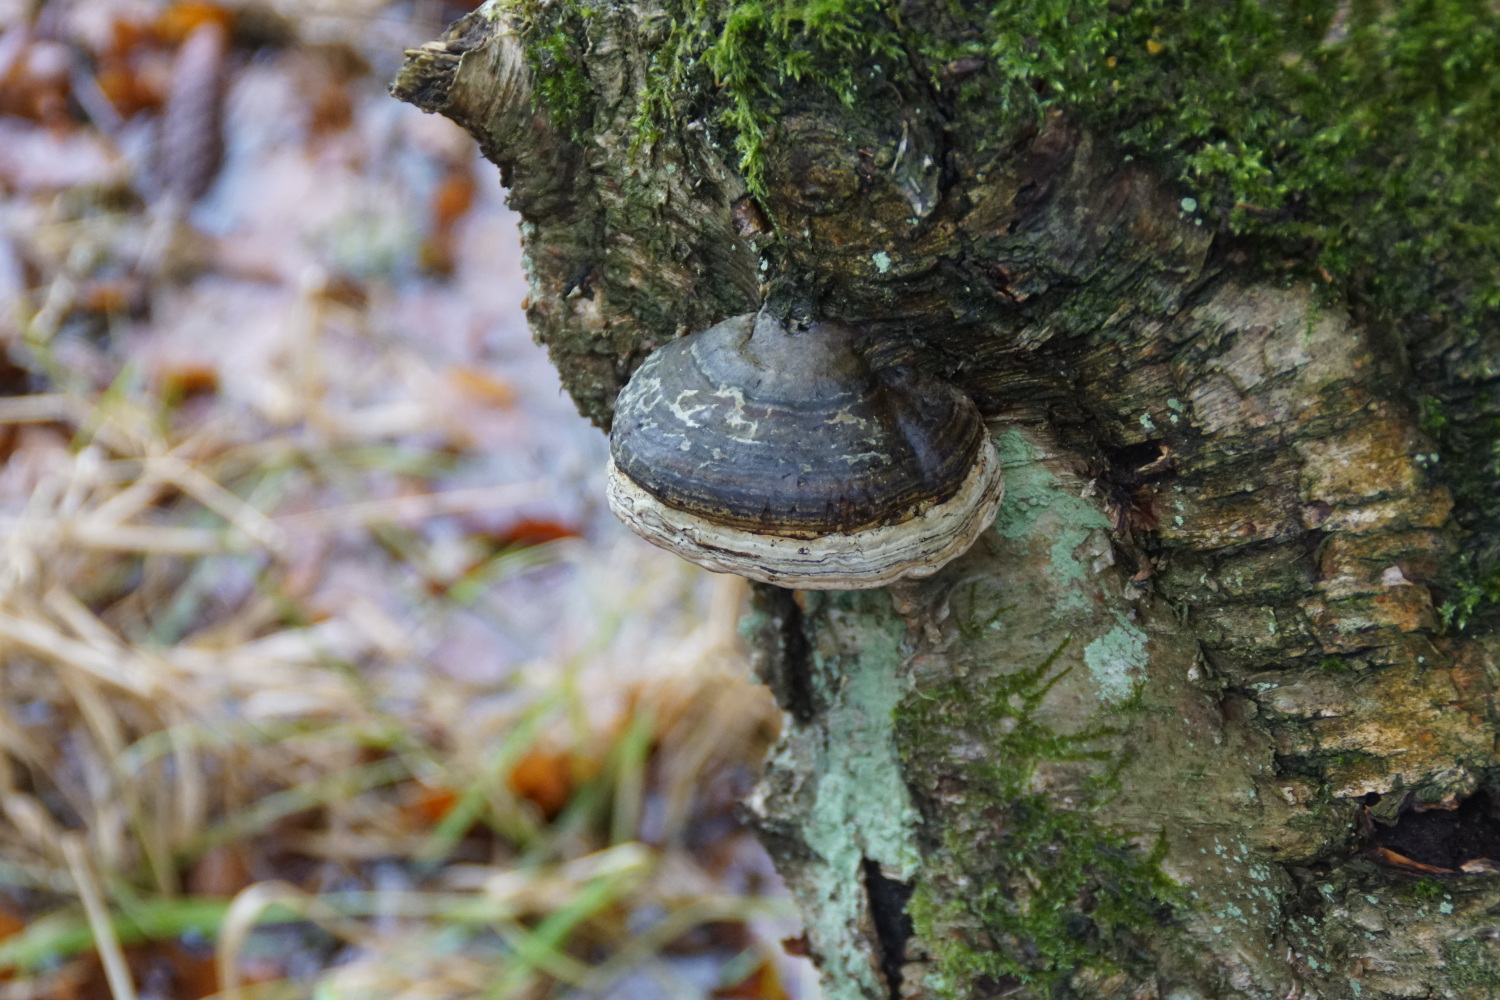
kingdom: Fungi
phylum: Basidiomycota
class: Agaricomycetes
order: Polyporales
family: Polyporaceae
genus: Fomes
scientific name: Fomes fomentarius
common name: tøndersvamp
